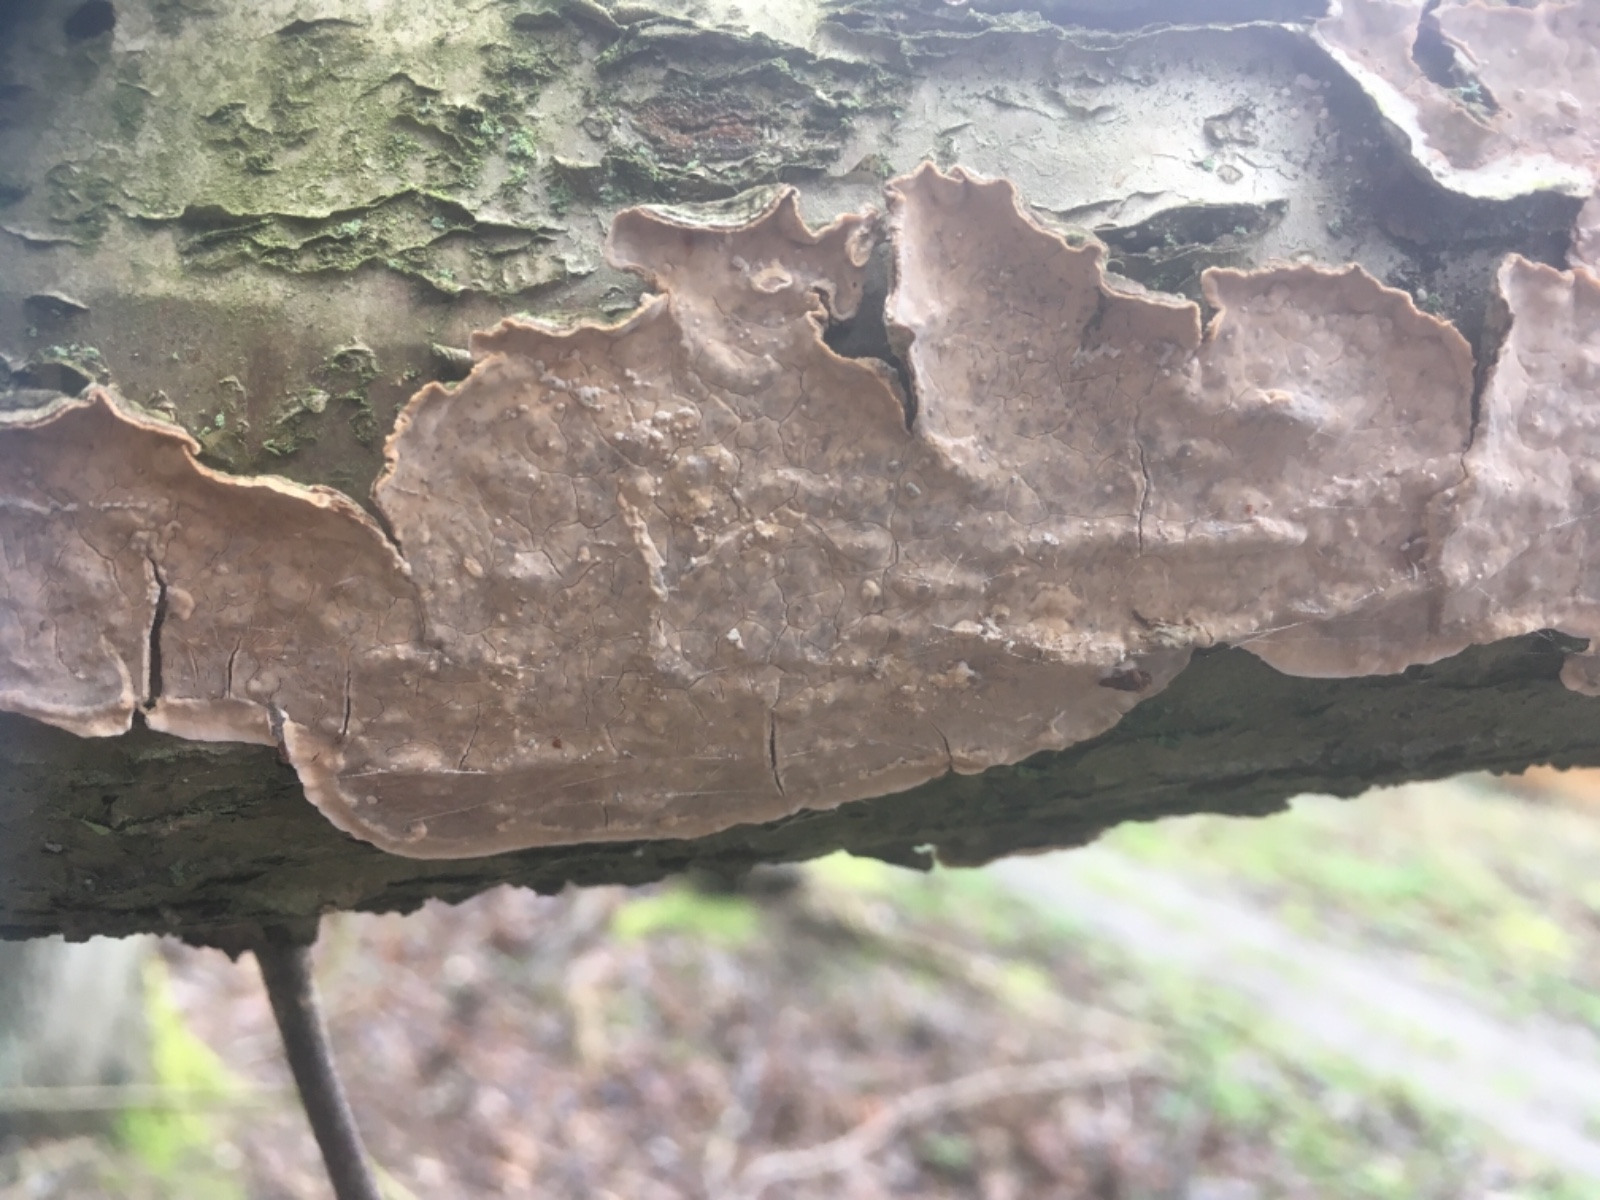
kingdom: Fungi
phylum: Basidiomycota
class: Agaricomycetes
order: Russulales
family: Stereaceae
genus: Stereum
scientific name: Stereum rugosum
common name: rynket lædersvamp
